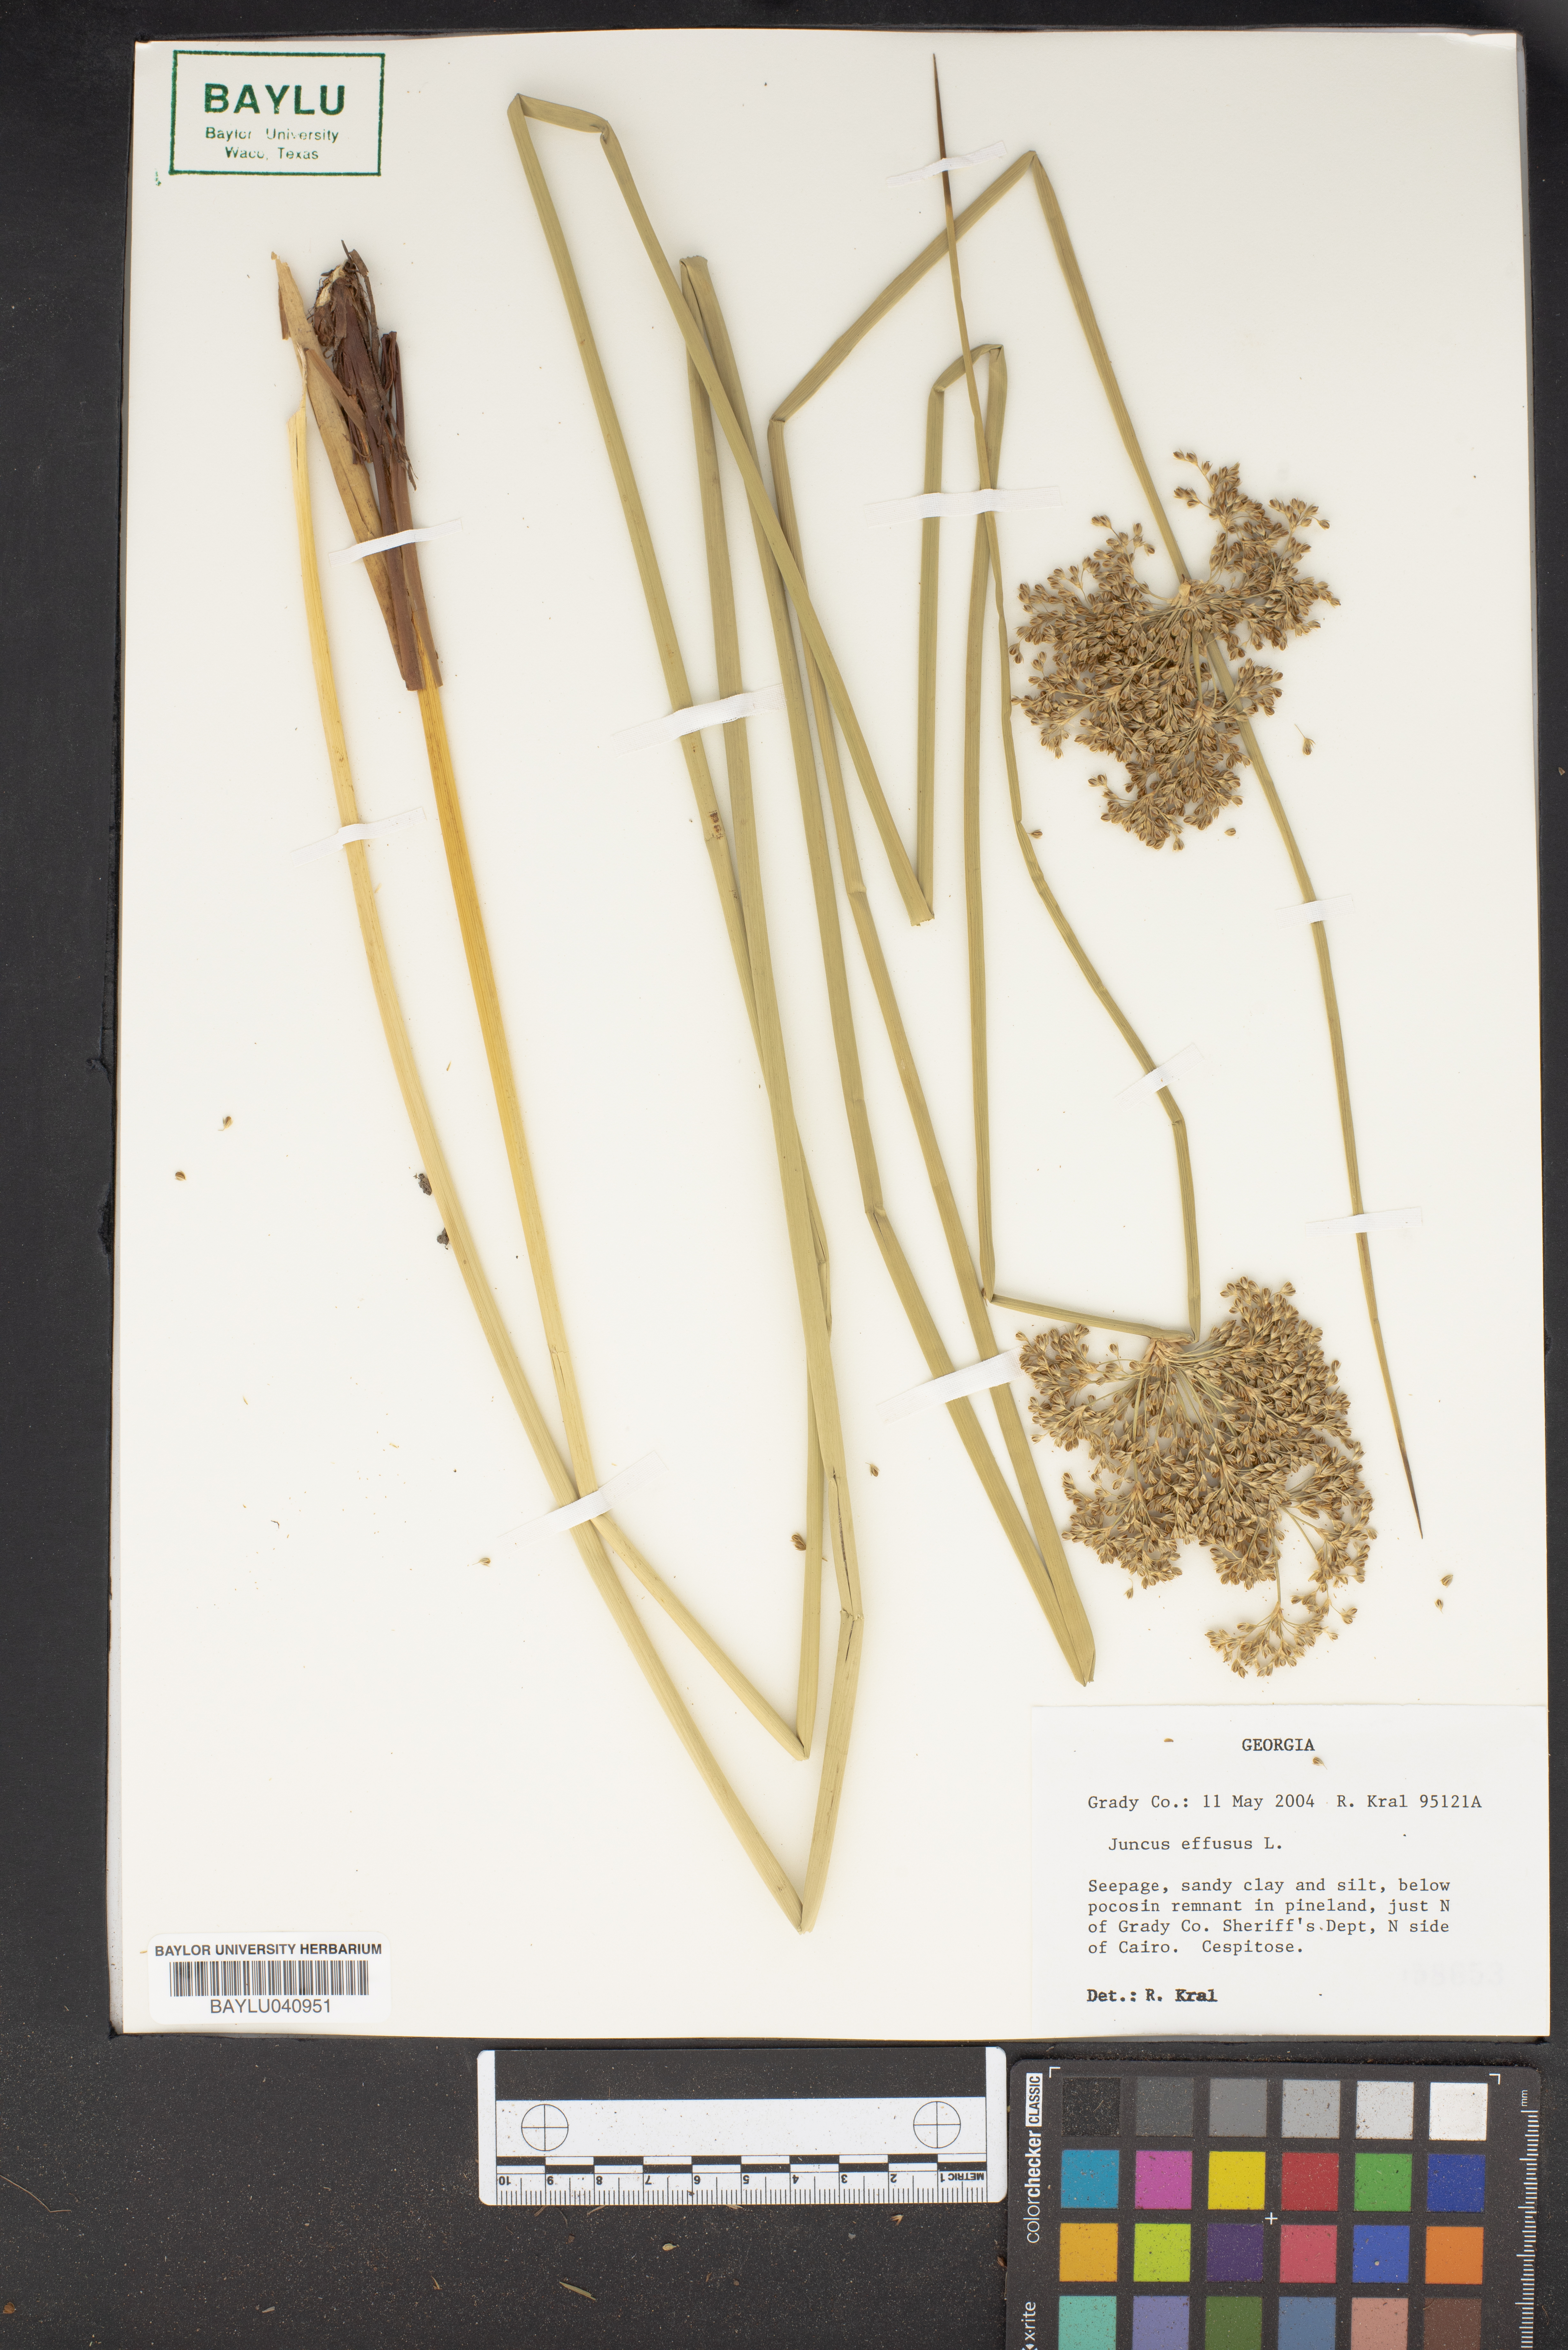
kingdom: Plantae
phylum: Tracheophyta
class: Liliopsida
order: Poales
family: Juncaceae
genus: Juncus
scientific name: Juncus effusus
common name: Soft rush
